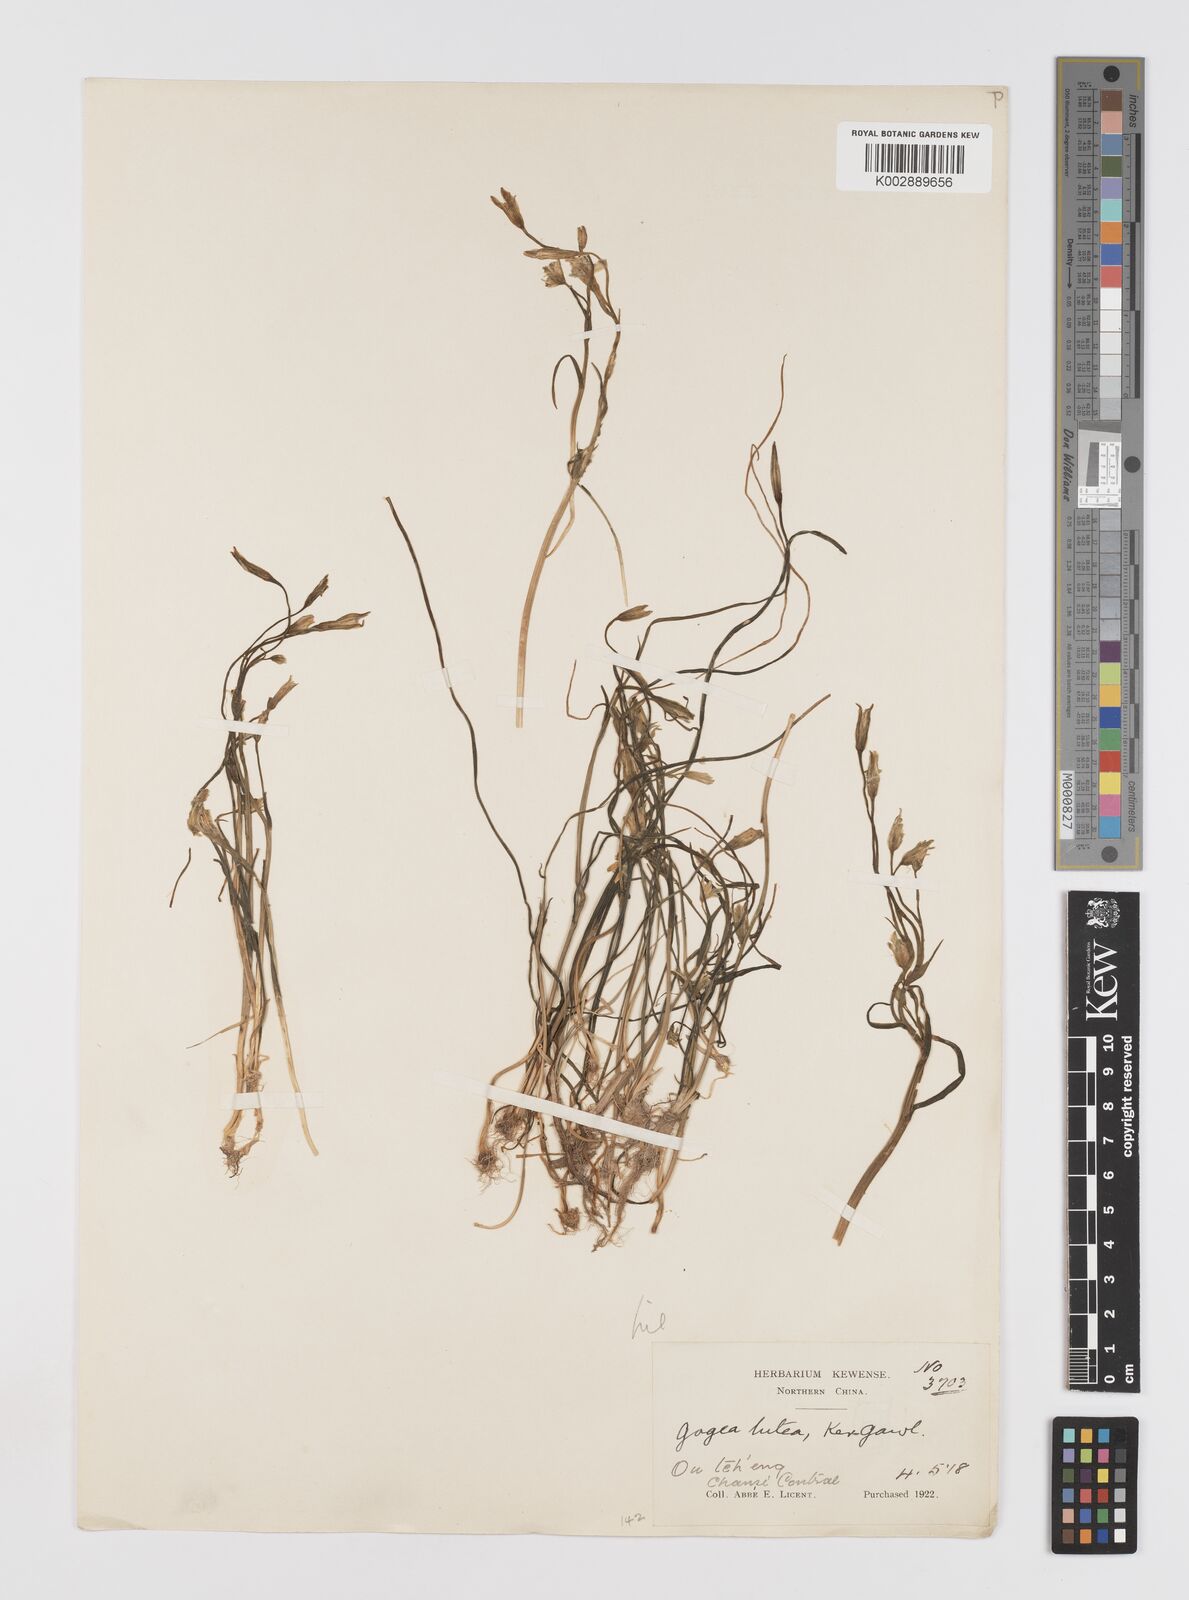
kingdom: Plantae
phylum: Tracheophyta
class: Liliopsida
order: Liliales
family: Liliaceae
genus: Gagea
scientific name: Gagea lutea
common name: Yellow star-of-bethlehem
